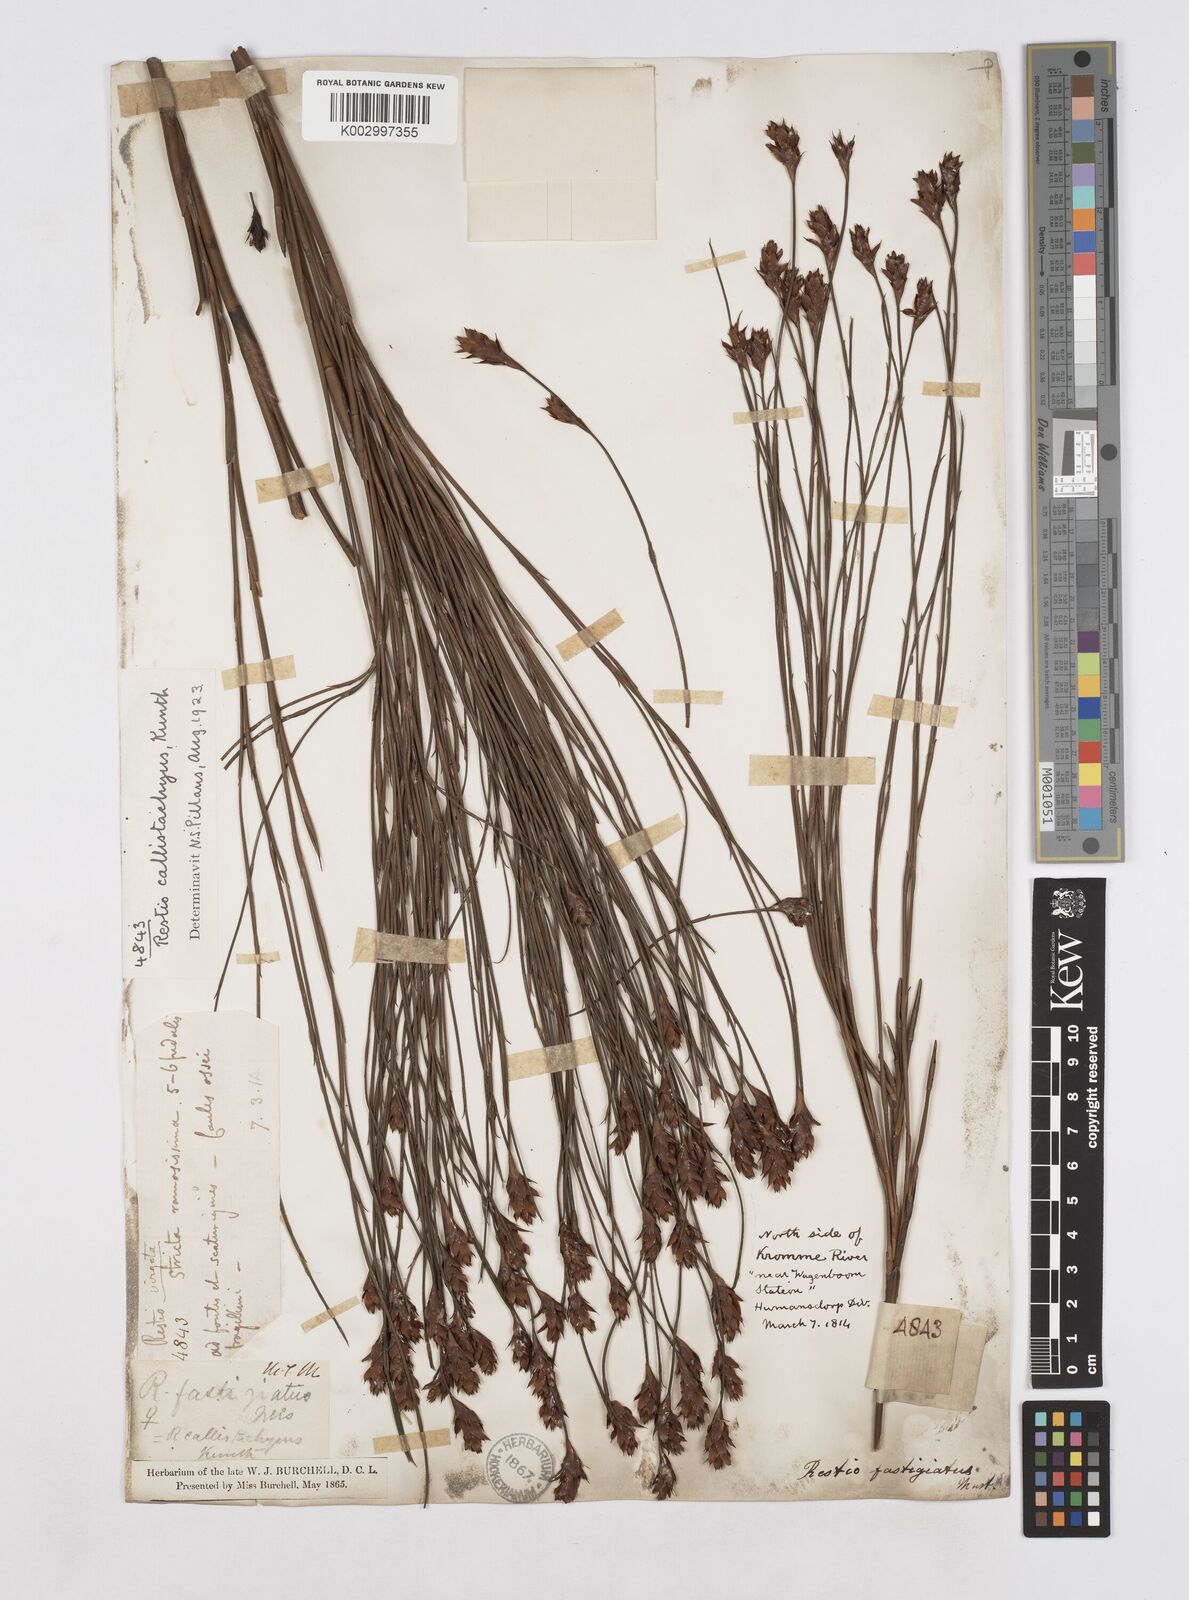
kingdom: Plantae
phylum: Tracheophyta
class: Liliopsida
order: Poales
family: Restionaceae
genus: Platycaulos
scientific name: Platycaulos callistachyus
